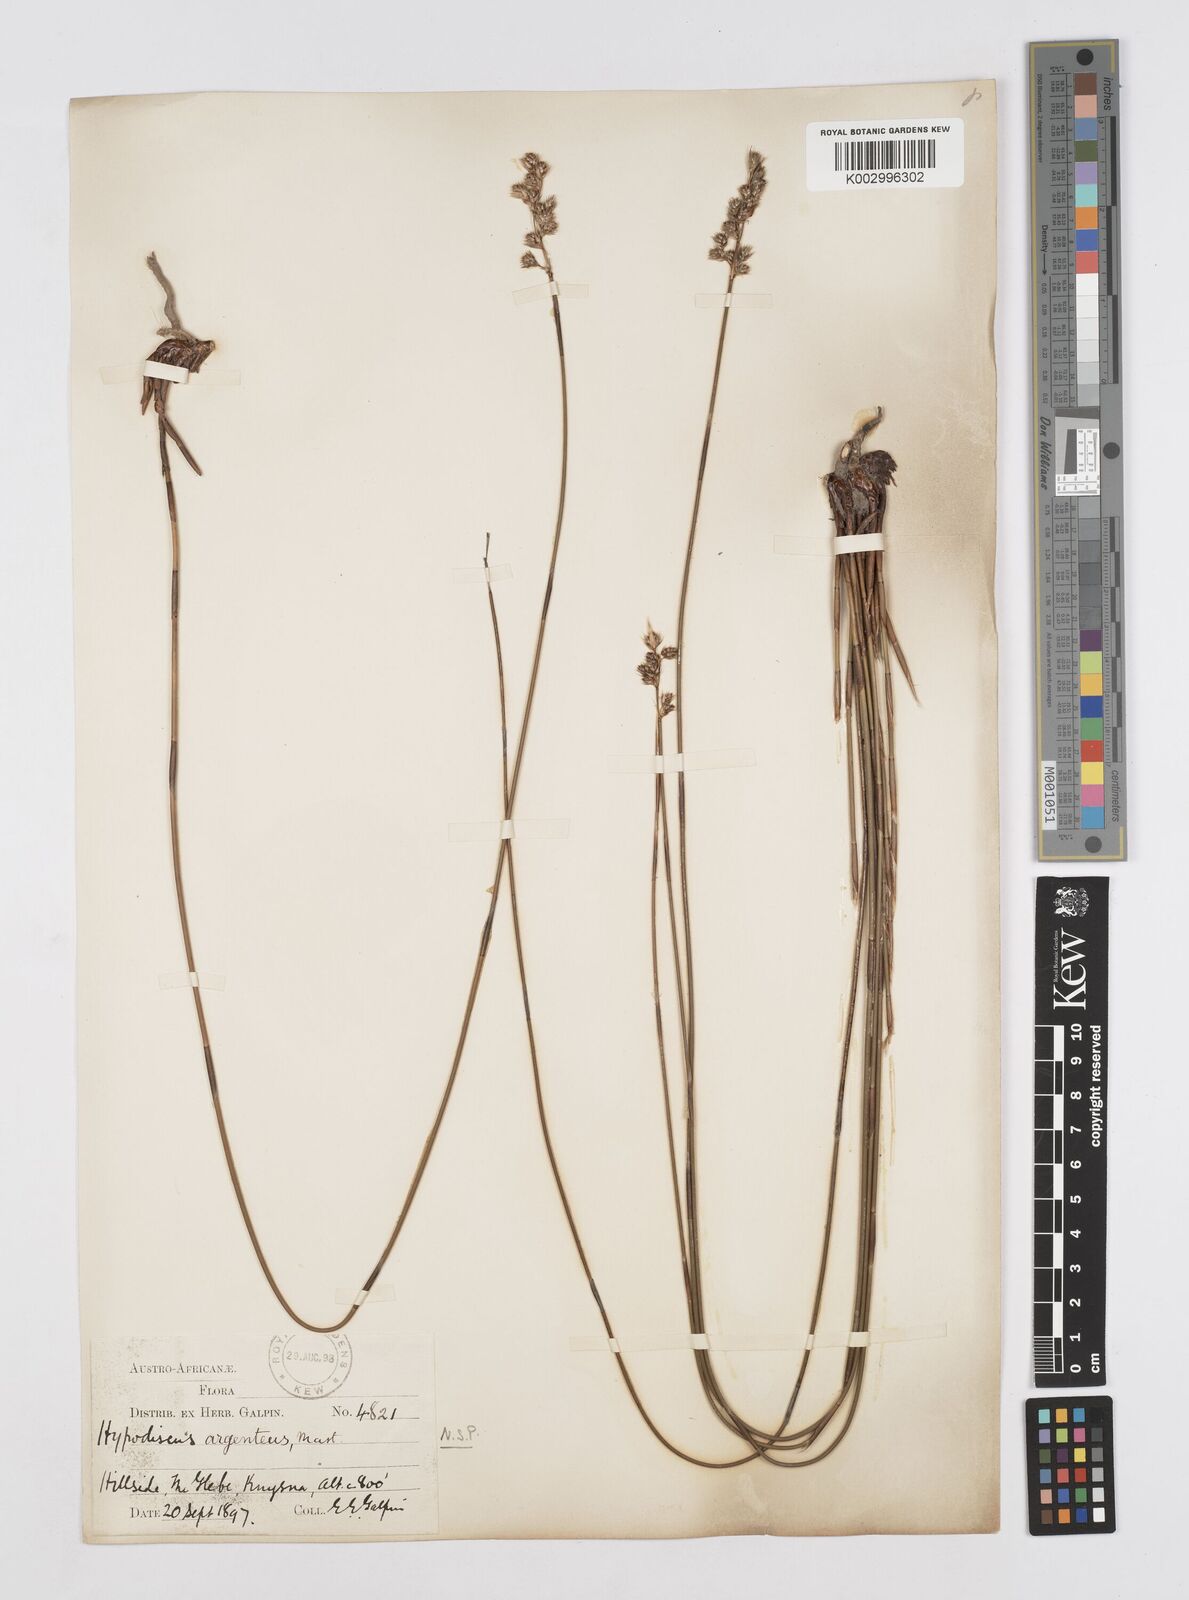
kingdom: Plantae
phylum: Tracheophyta
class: Liliopsida
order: Poales
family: Restionaceae
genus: Hypodiscus
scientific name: Hypodiscus argenteus
